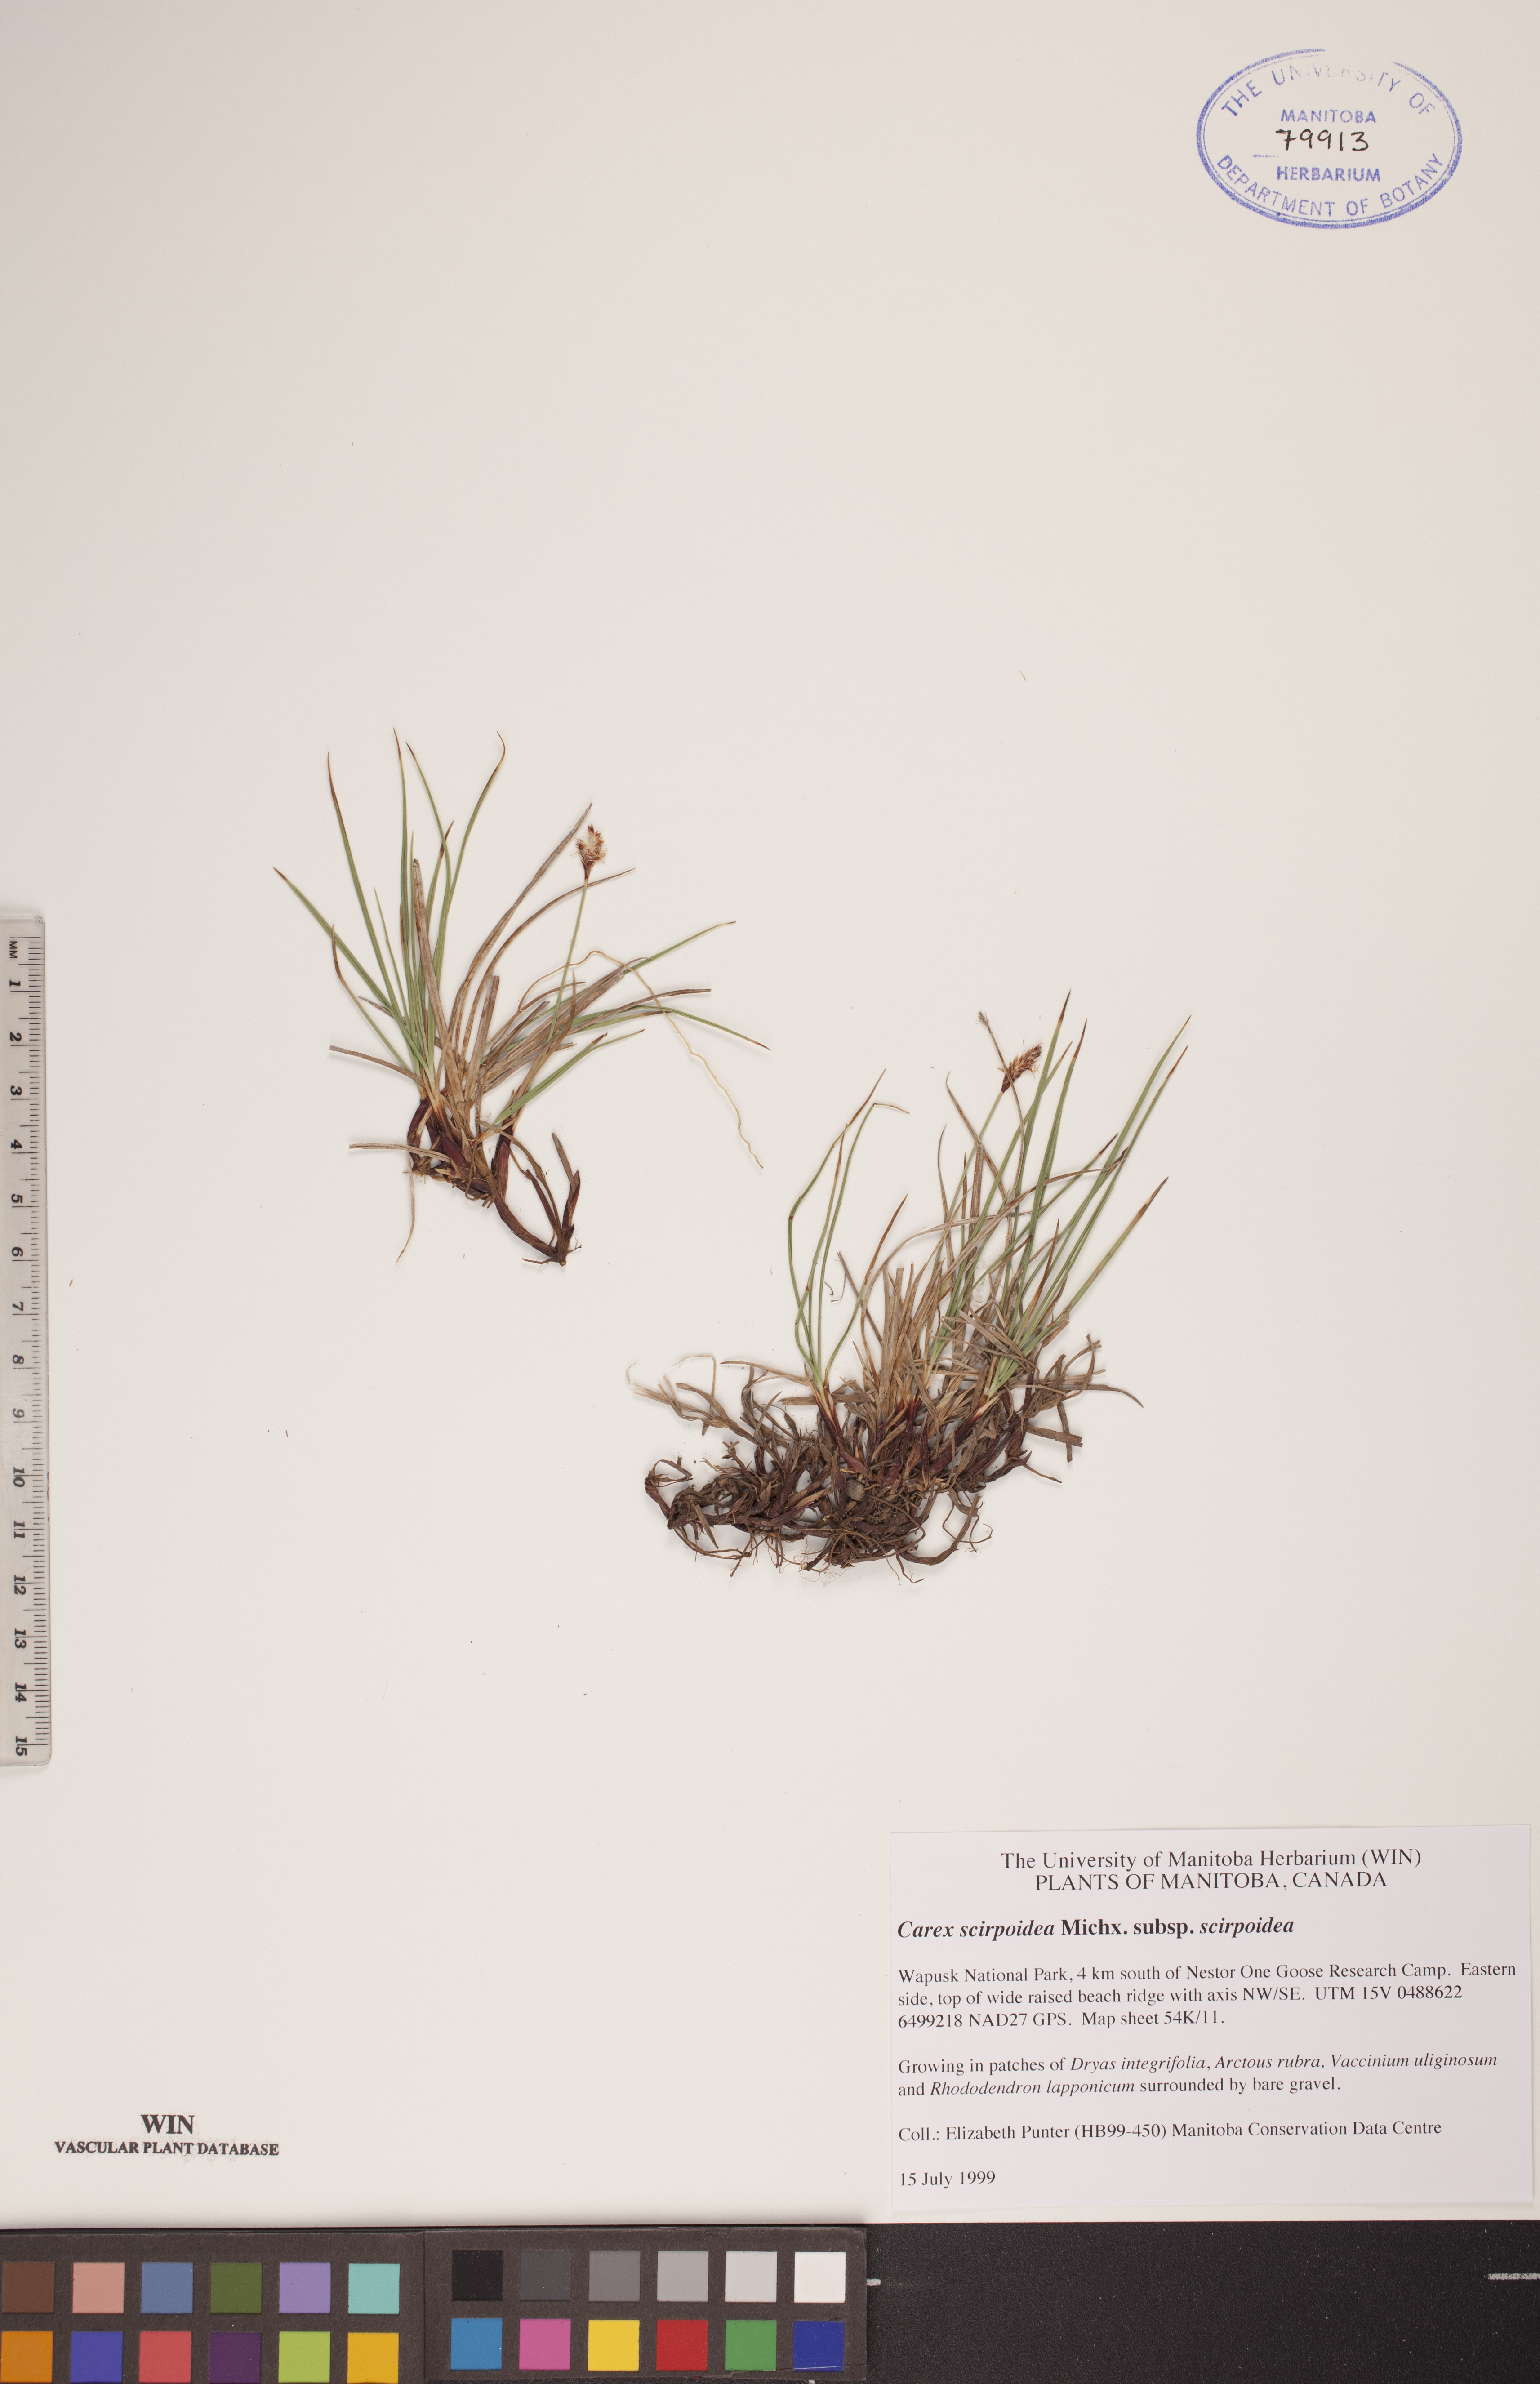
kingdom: Plantae
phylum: Tracheophyta
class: Liliopsida
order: Poales
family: Cyperaceae
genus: Carex
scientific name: Carex scirpoidea
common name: Canada single-spike sedge
